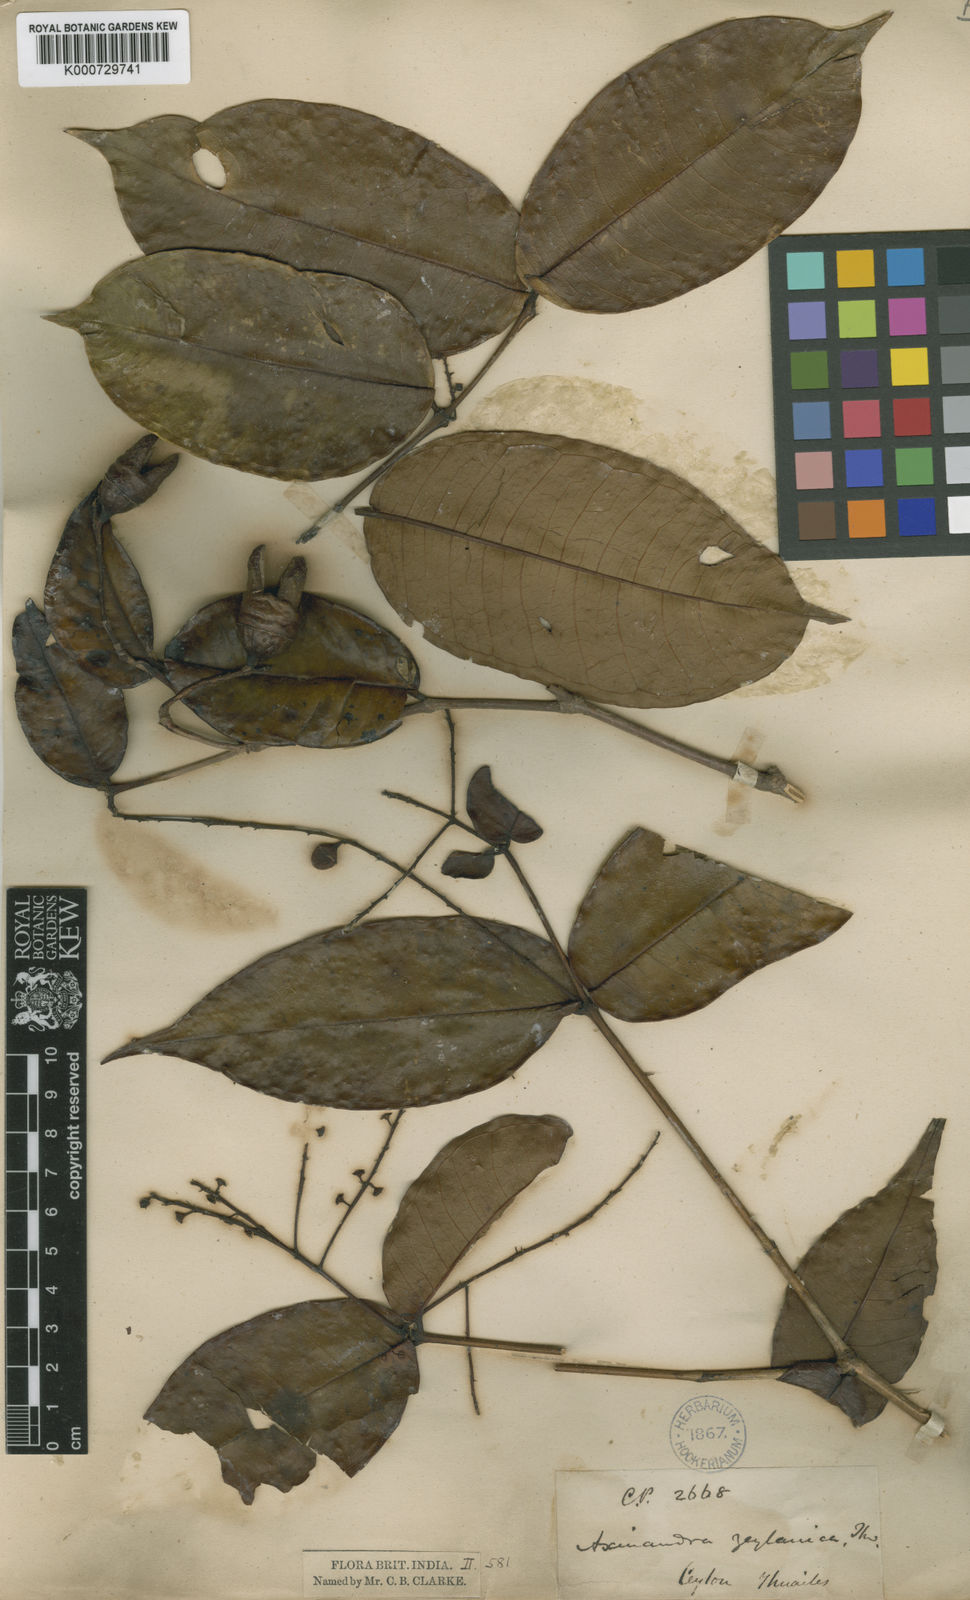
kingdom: Plantae
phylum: Tracheophyta
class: Magnoliopsida
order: Myrtales
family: Crypteroniaceae
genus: Axinandra
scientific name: Axinandra zeylanica
